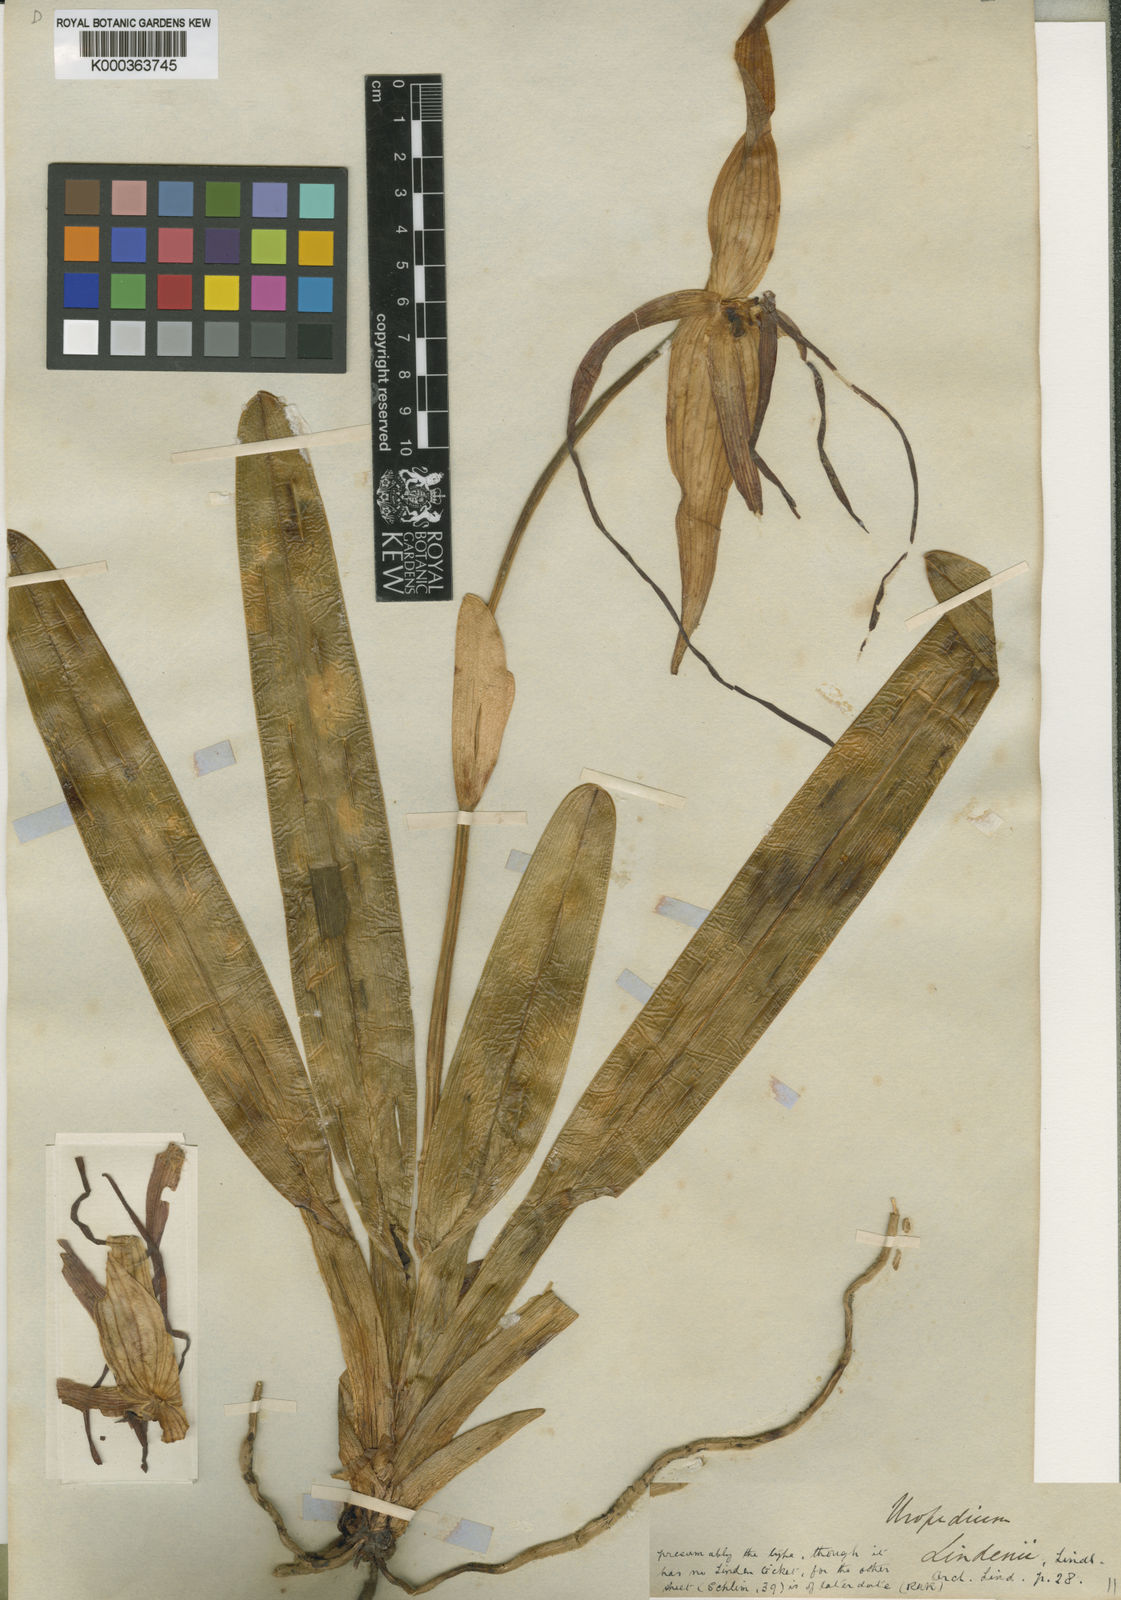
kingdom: Plantae
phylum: Tracheophyta
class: Liliopsida
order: Asparagales
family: Orchidaceae
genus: Phragmipedium
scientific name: Phragmipedium lindenii
